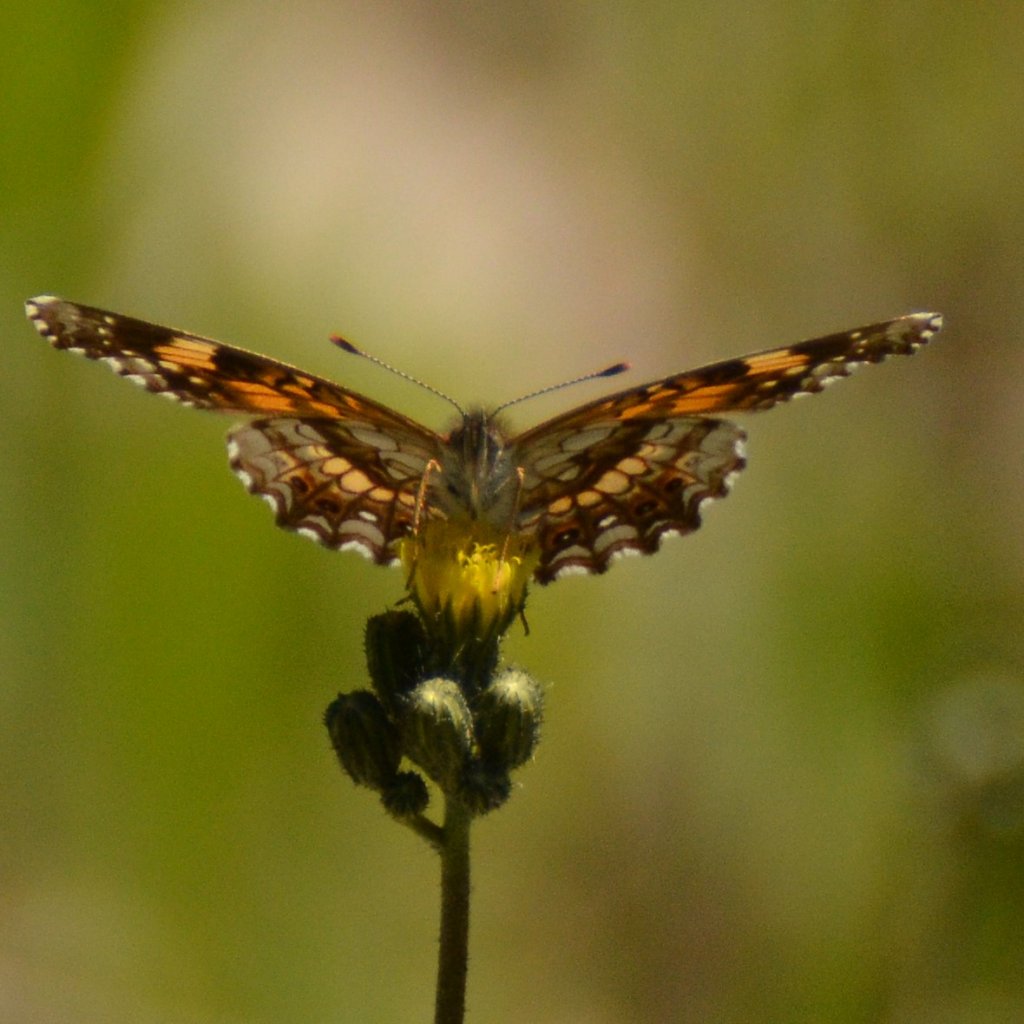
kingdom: Animalia
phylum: Arthropoda
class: Insecta
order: Lepidoptera
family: Nymphalidae
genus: Chlosyne
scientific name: Chlosyne nycteis
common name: Silvery Checkerspot
